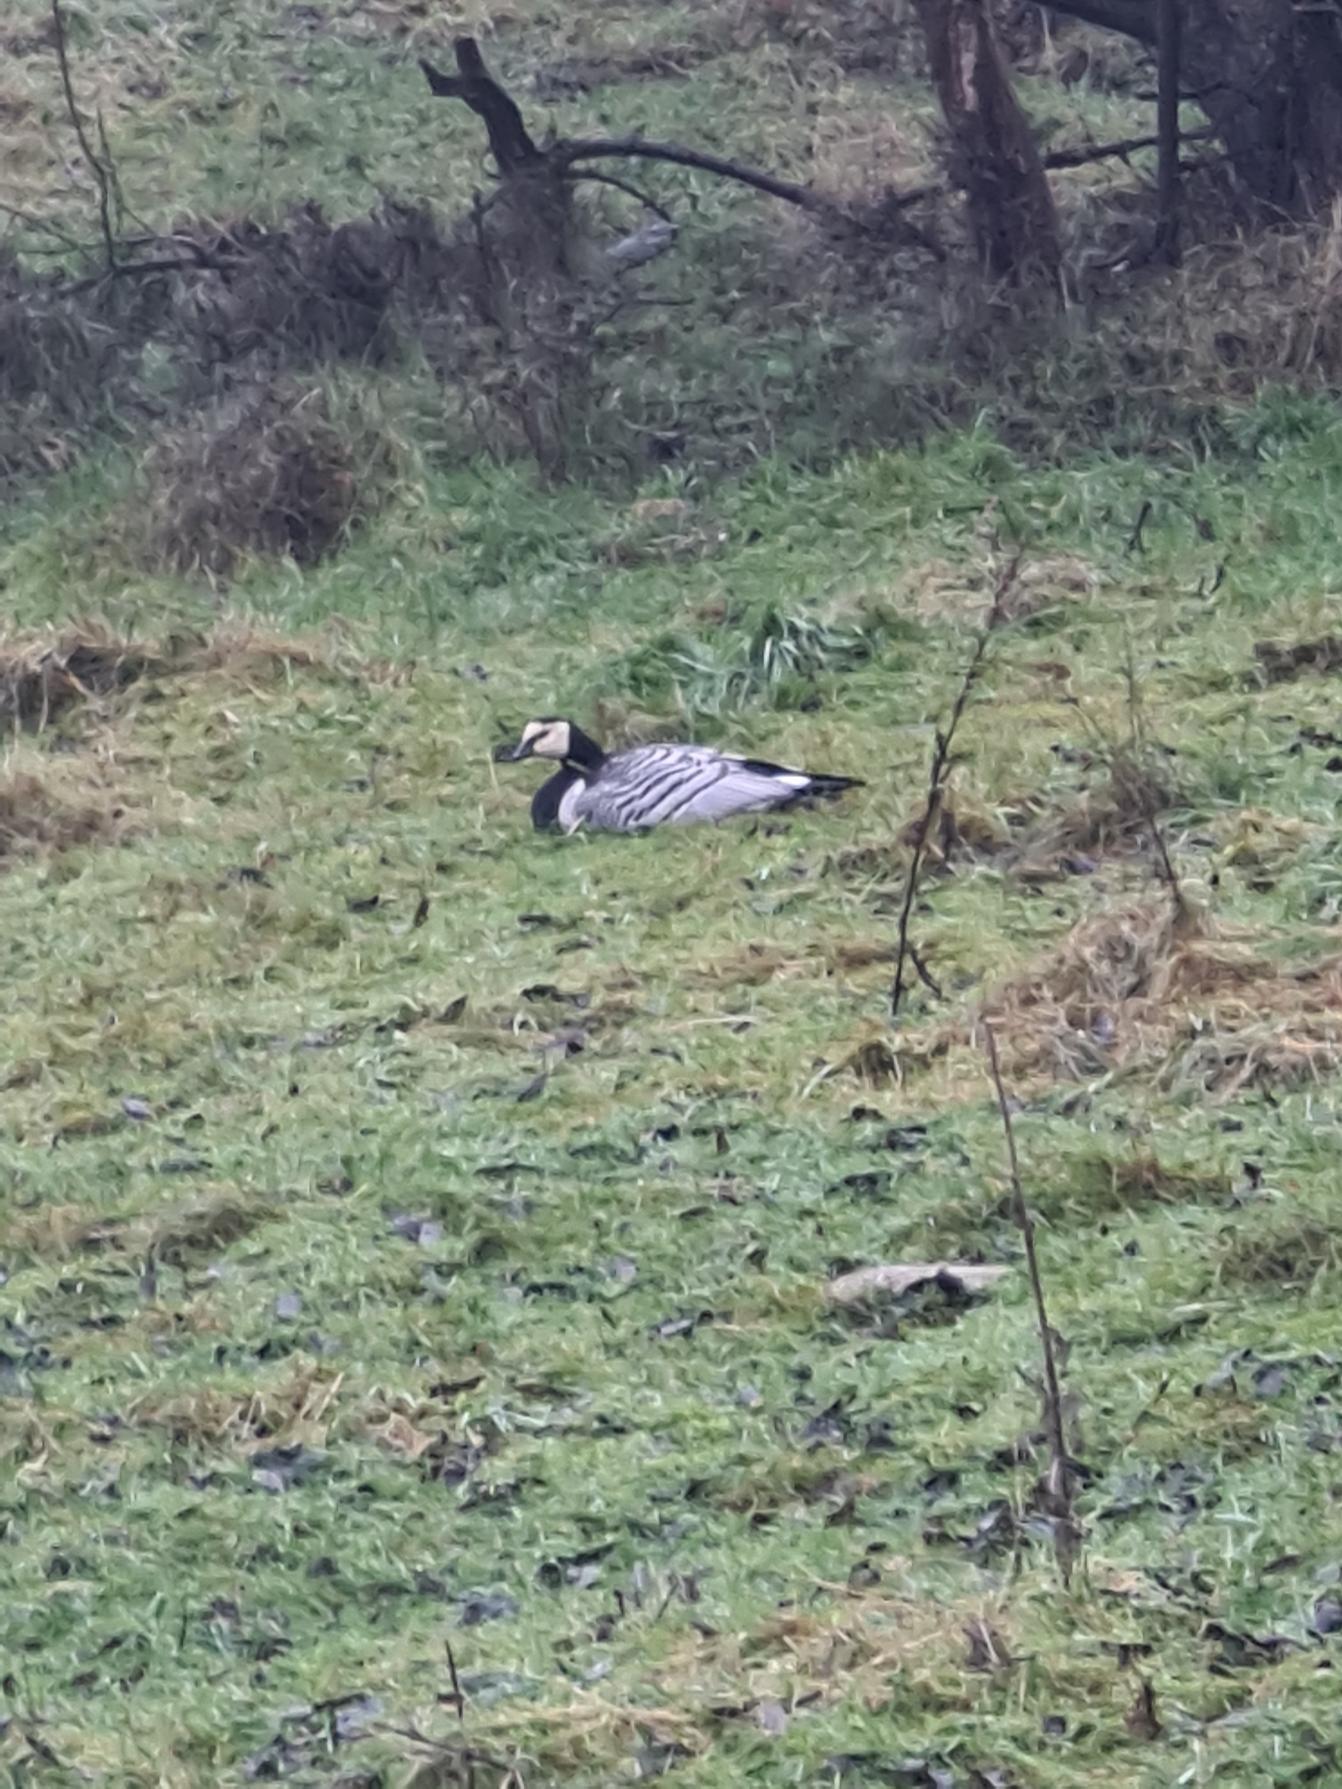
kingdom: Animalia
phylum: Chordata
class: Aves
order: Anseriformes
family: Anatidae
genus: Branta
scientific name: Branta leucopsis
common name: Bramgås
